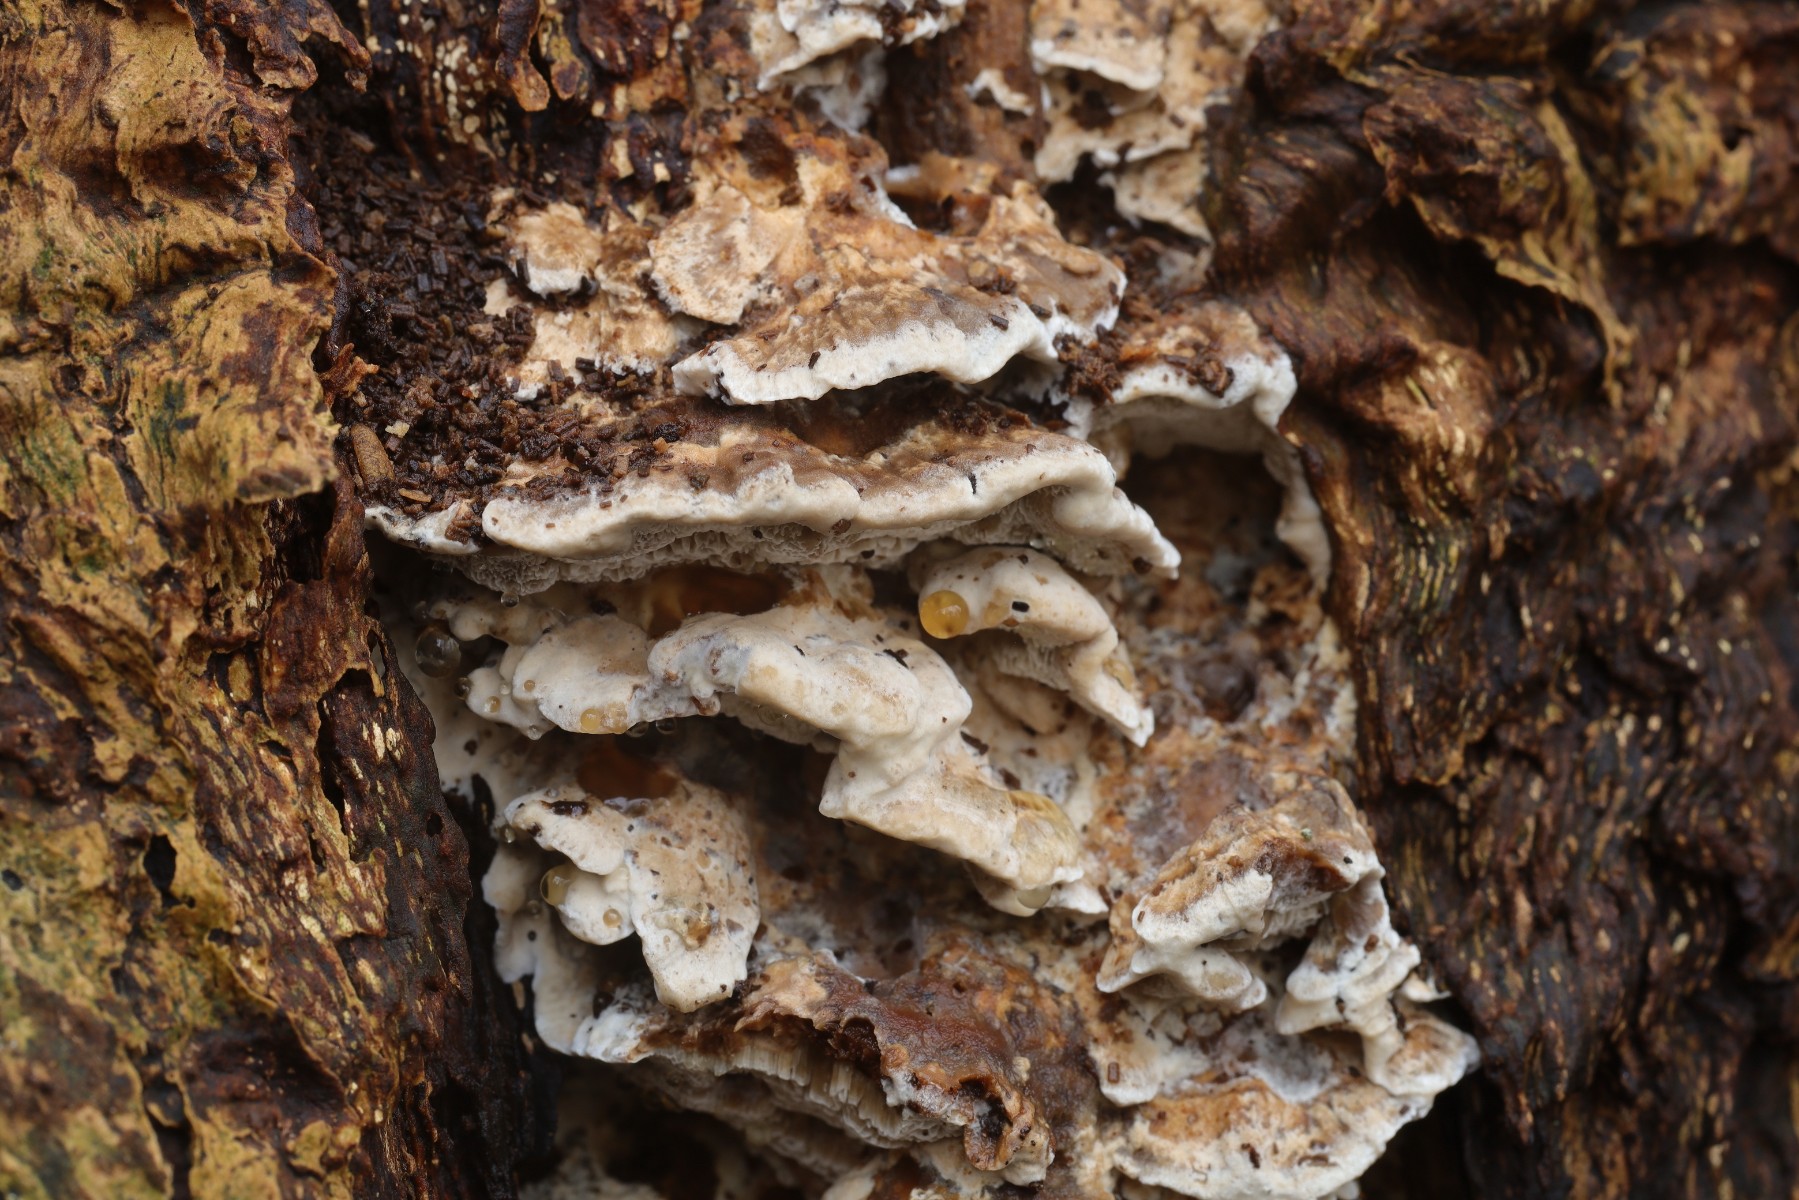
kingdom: Fungi
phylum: Basidiomycota
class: Agaricomycetes
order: Polyporales
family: Phanerochaetaceae
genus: Bjerkandera
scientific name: Bjerkandera fumosa
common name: grågul sodporesvamp
